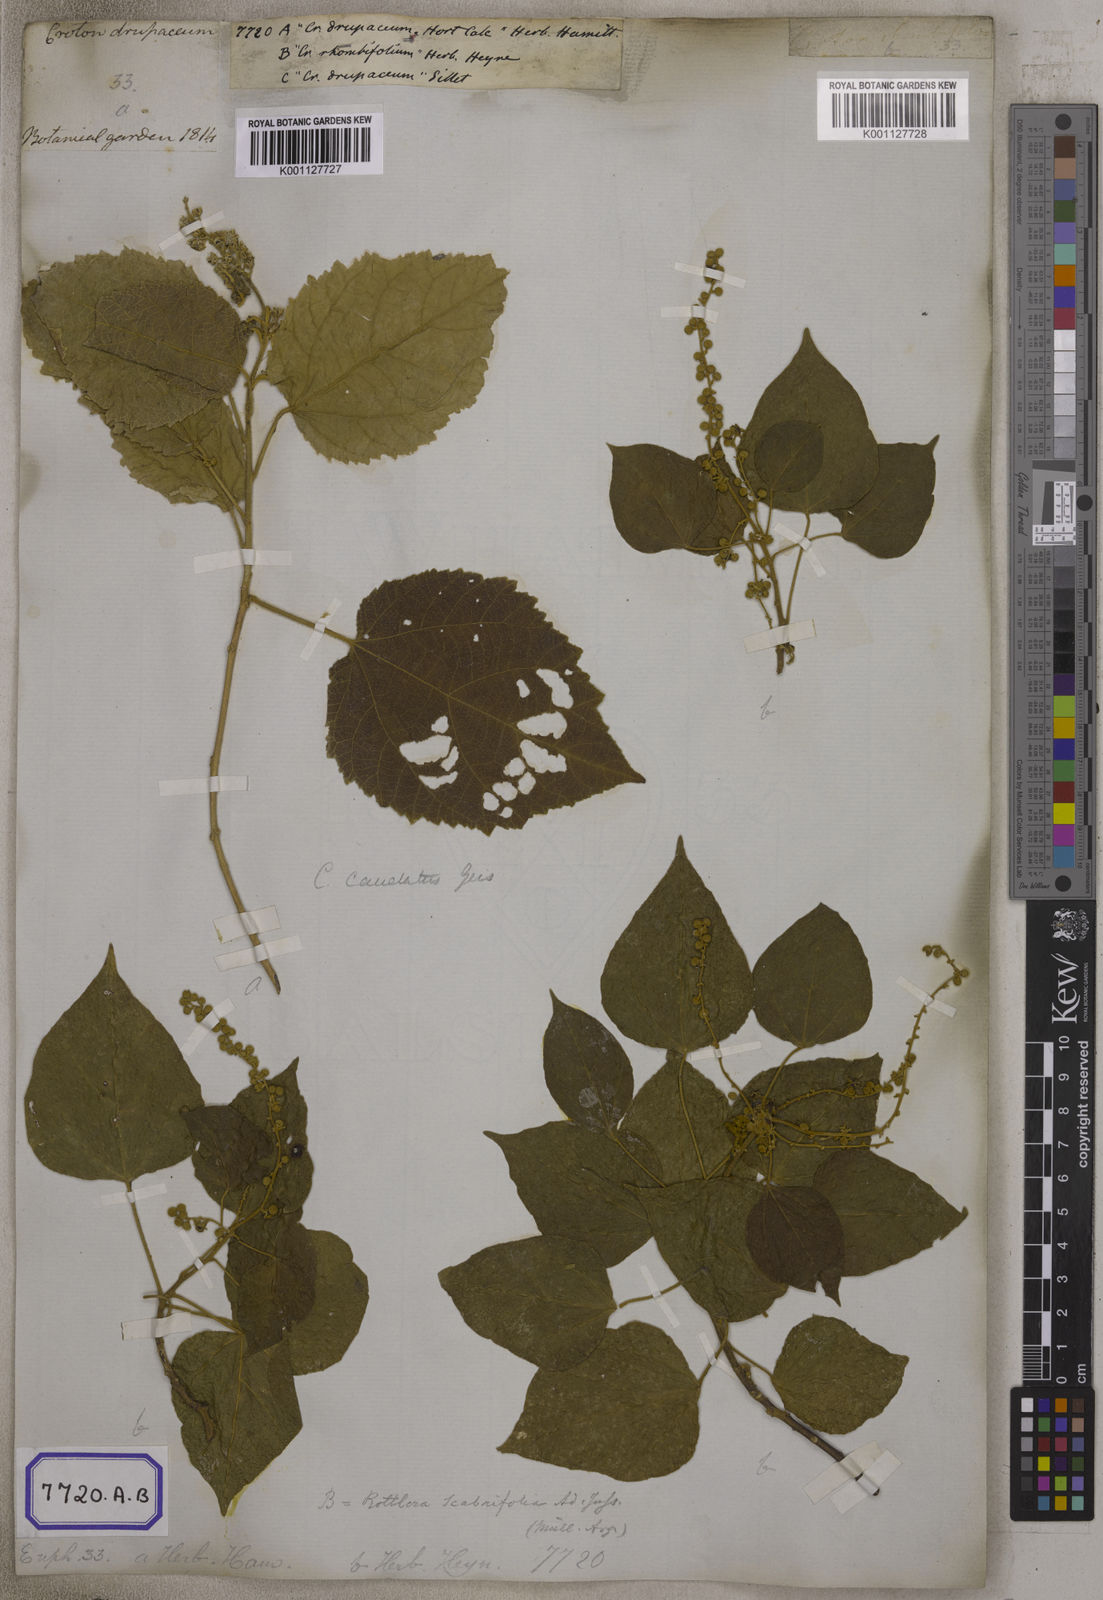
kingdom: Plantae
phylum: Tracheophyta
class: Magnoliopsida
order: Malpighiales
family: Euphorbiaceae
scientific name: Euphorbiaceae
